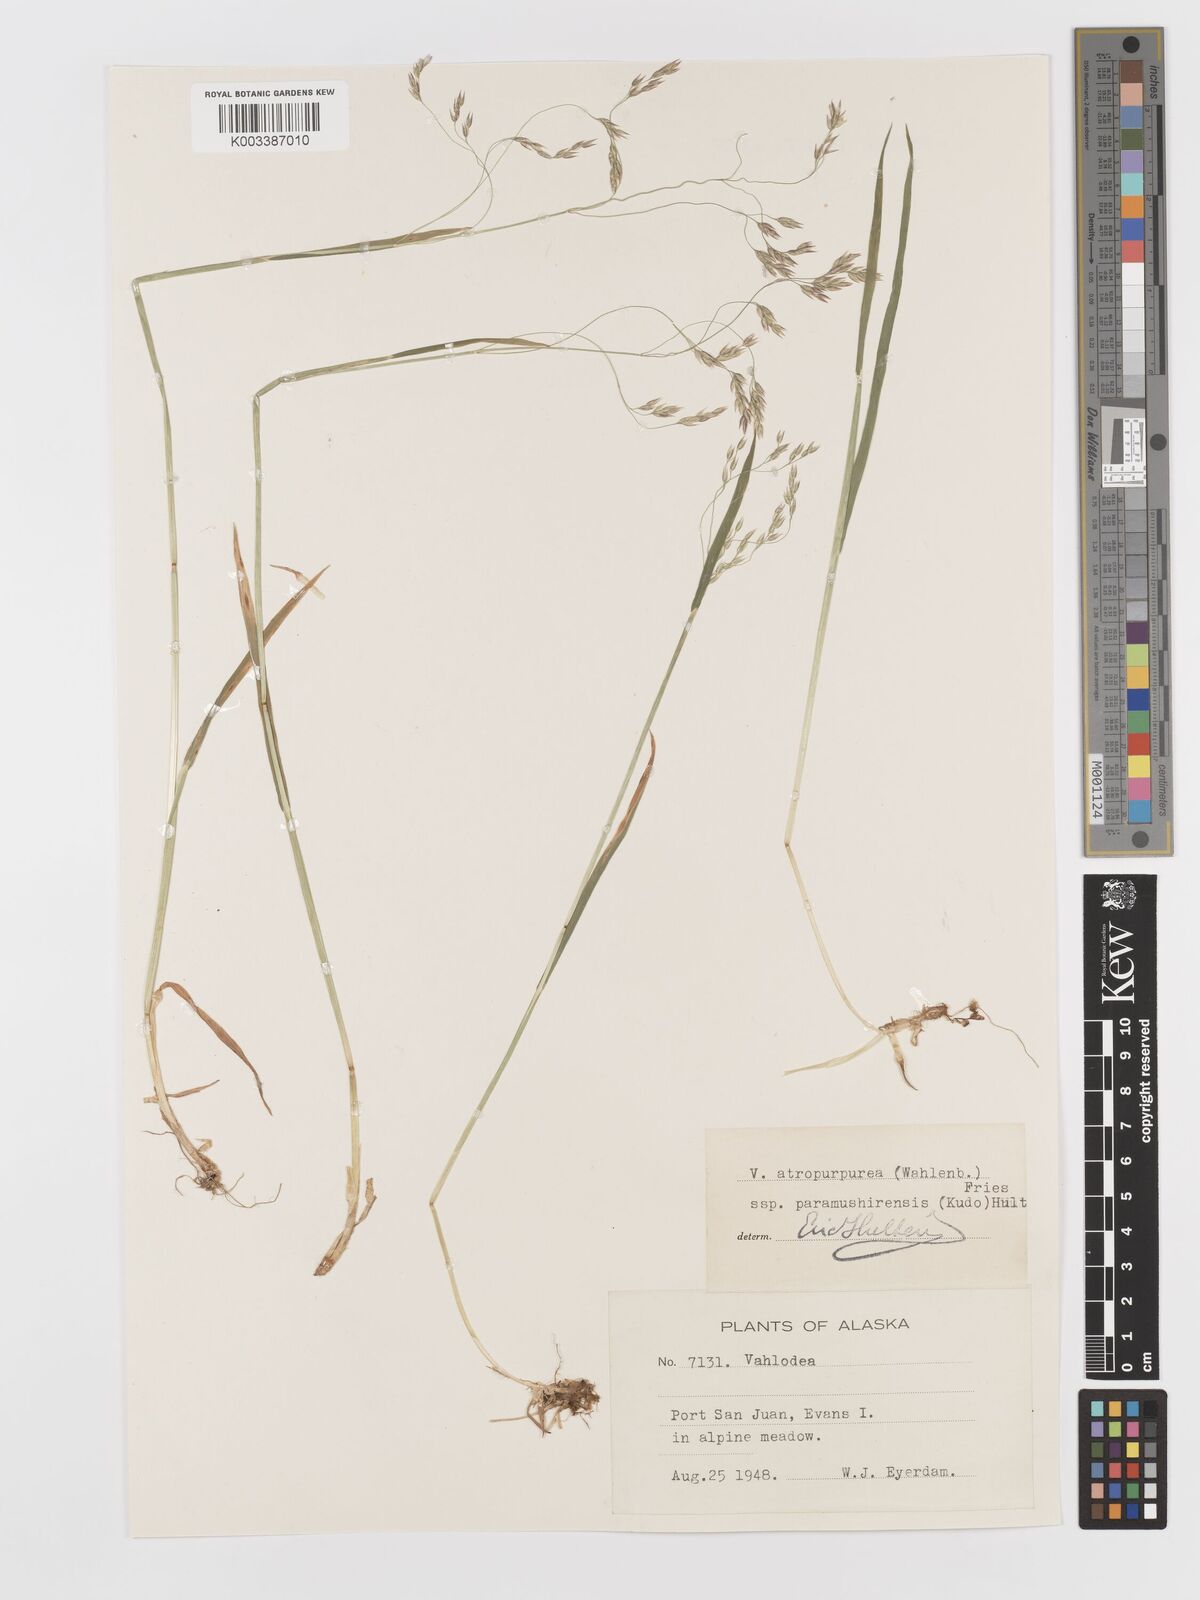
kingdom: Plantae
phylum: Tracheophyta
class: Liliopsida
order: Poales
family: Poaceae
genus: Vahlodea
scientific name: Vahlodea atropurpurea
